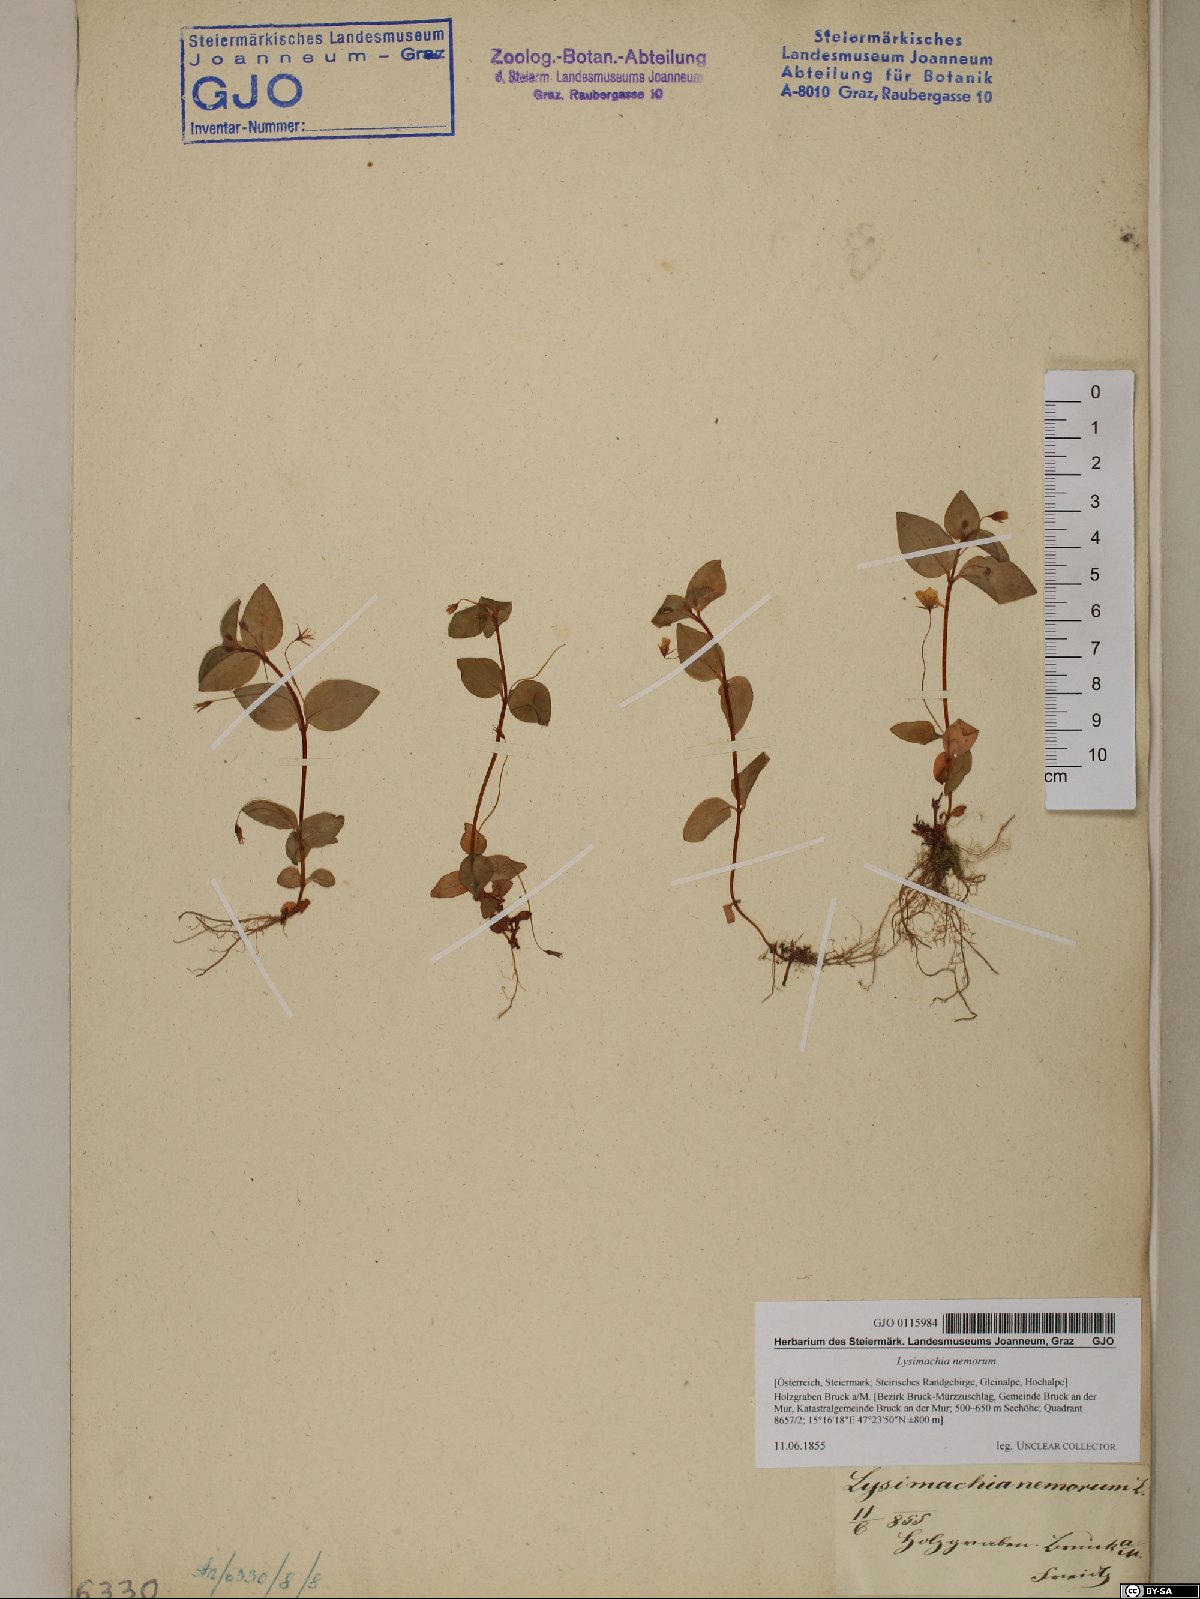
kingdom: Plantae
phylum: Tracheophyta
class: Magnoliopsida
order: Ericales
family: Primulaceae
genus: Lysimachia
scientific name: Lysimachia nemorum
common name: Yellow pimpernel
